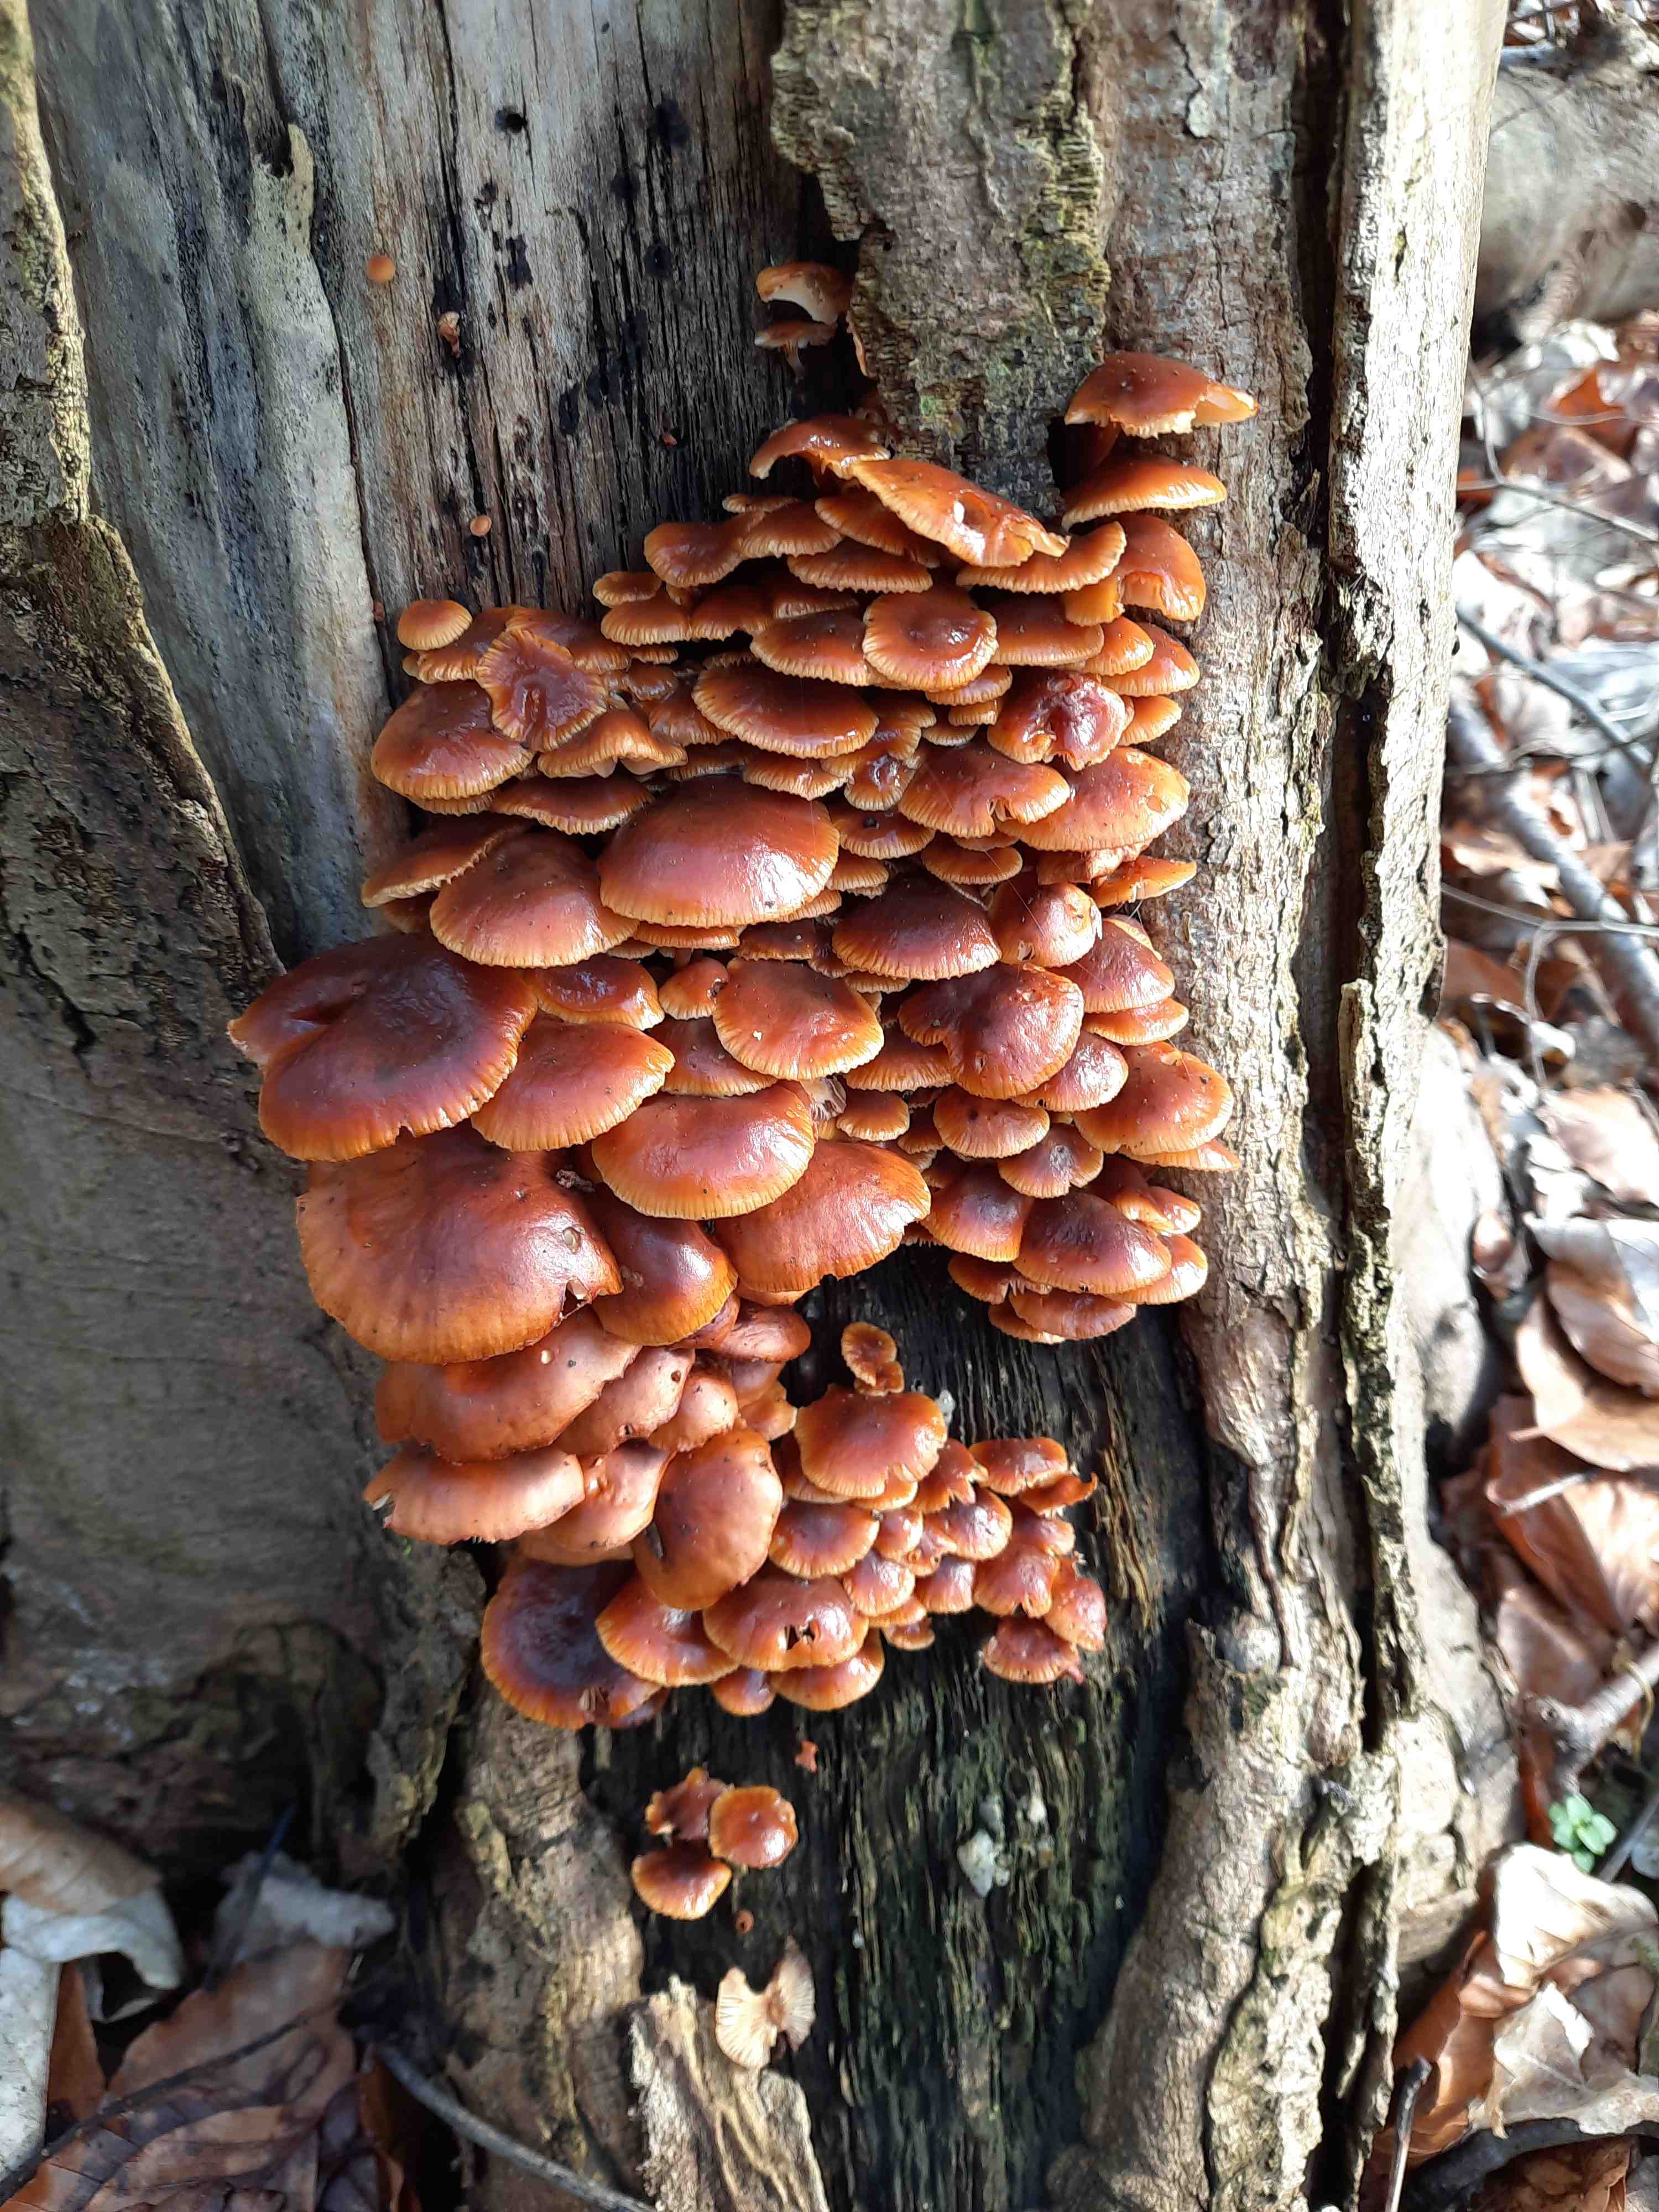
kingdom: Fungi
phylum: Basidiomycota
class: Agaricomycetes
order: Agaricales
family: Physalacriaceae
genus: Flammulina
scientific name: Flammulina velutipes
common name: gul fløjlsfod
